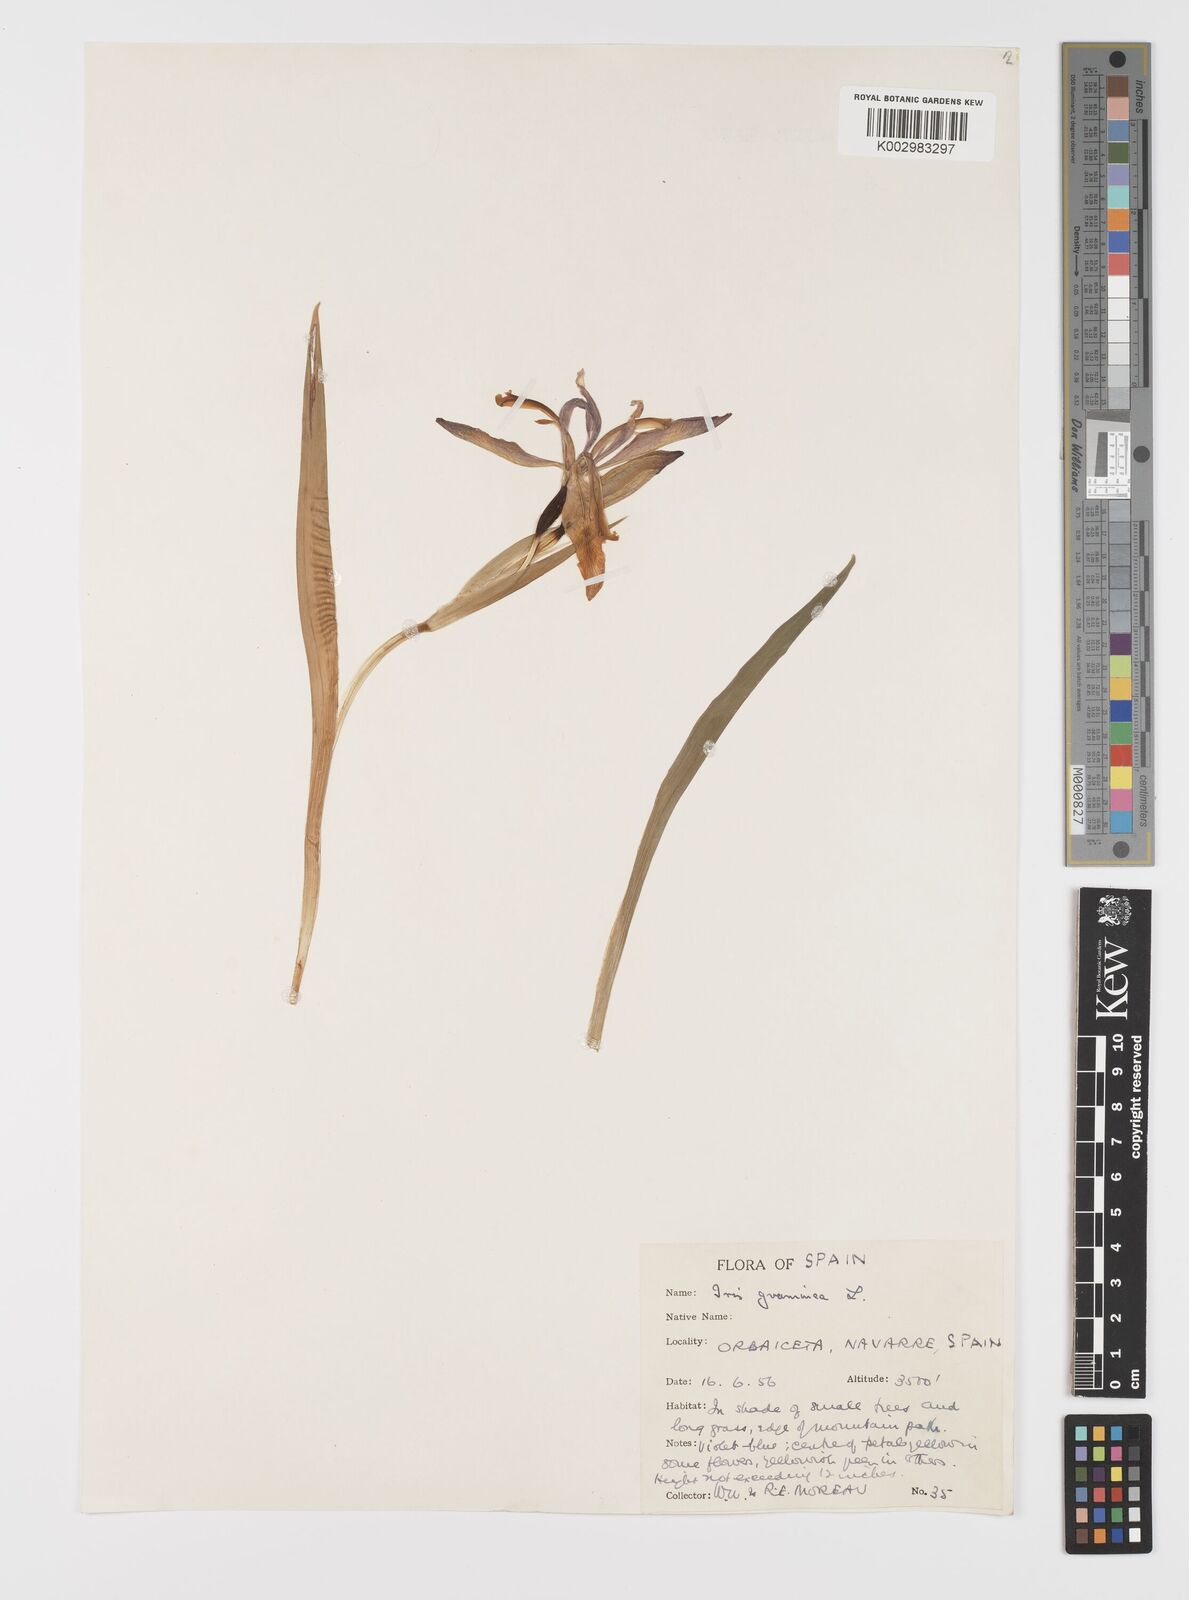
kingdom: Plantae
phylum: Tracheophyta
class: Liliopsida
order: Asparagales
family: Iridaceae
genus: Iris
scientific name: Iris graminea
